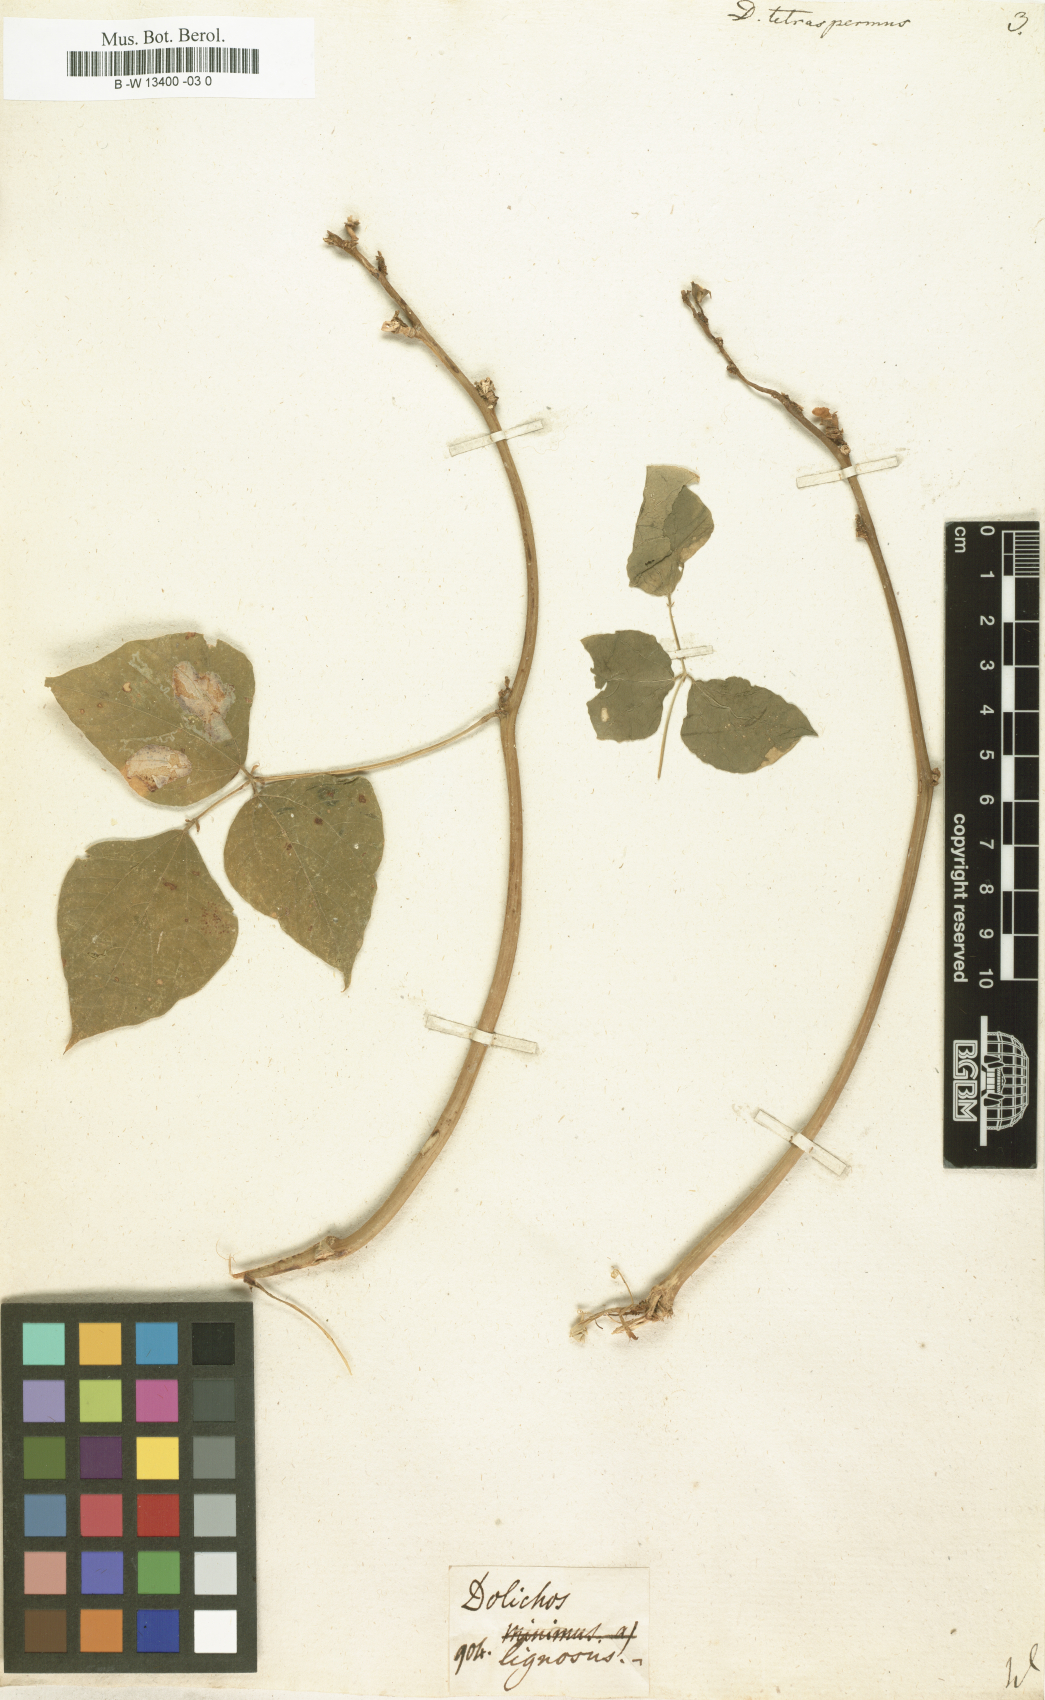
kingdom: Plantae
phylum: Tracheophyta
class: Magnoliopsida
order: Fabales
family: Fabaceae
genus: Lablab
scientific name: Lablab purpureus
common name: Lablab-bean
